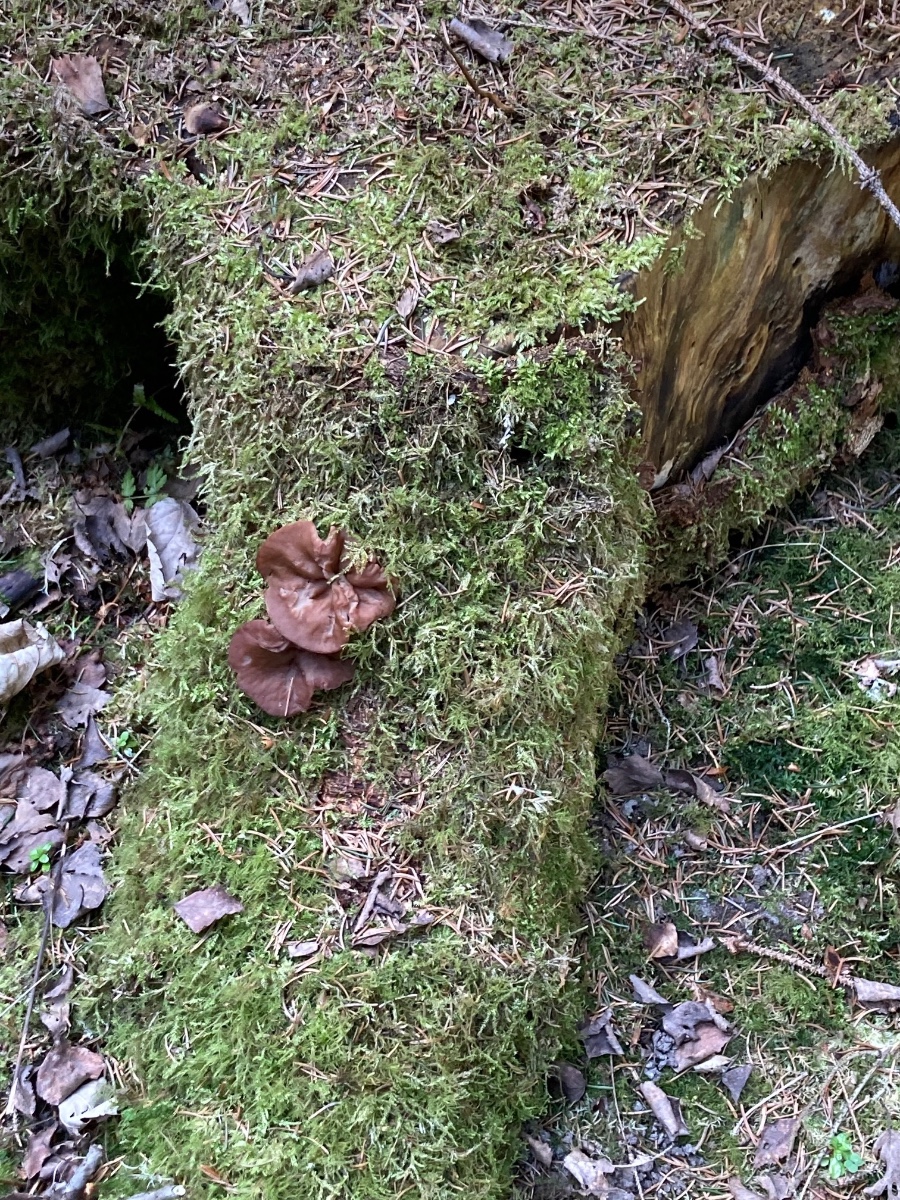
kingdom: Fungi
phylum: Ascomycota
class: Pezizomycetes
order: Pezizales
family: Discinaceae
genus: Discina
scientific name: Discina ancilis
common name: udbredt stenmorkel
